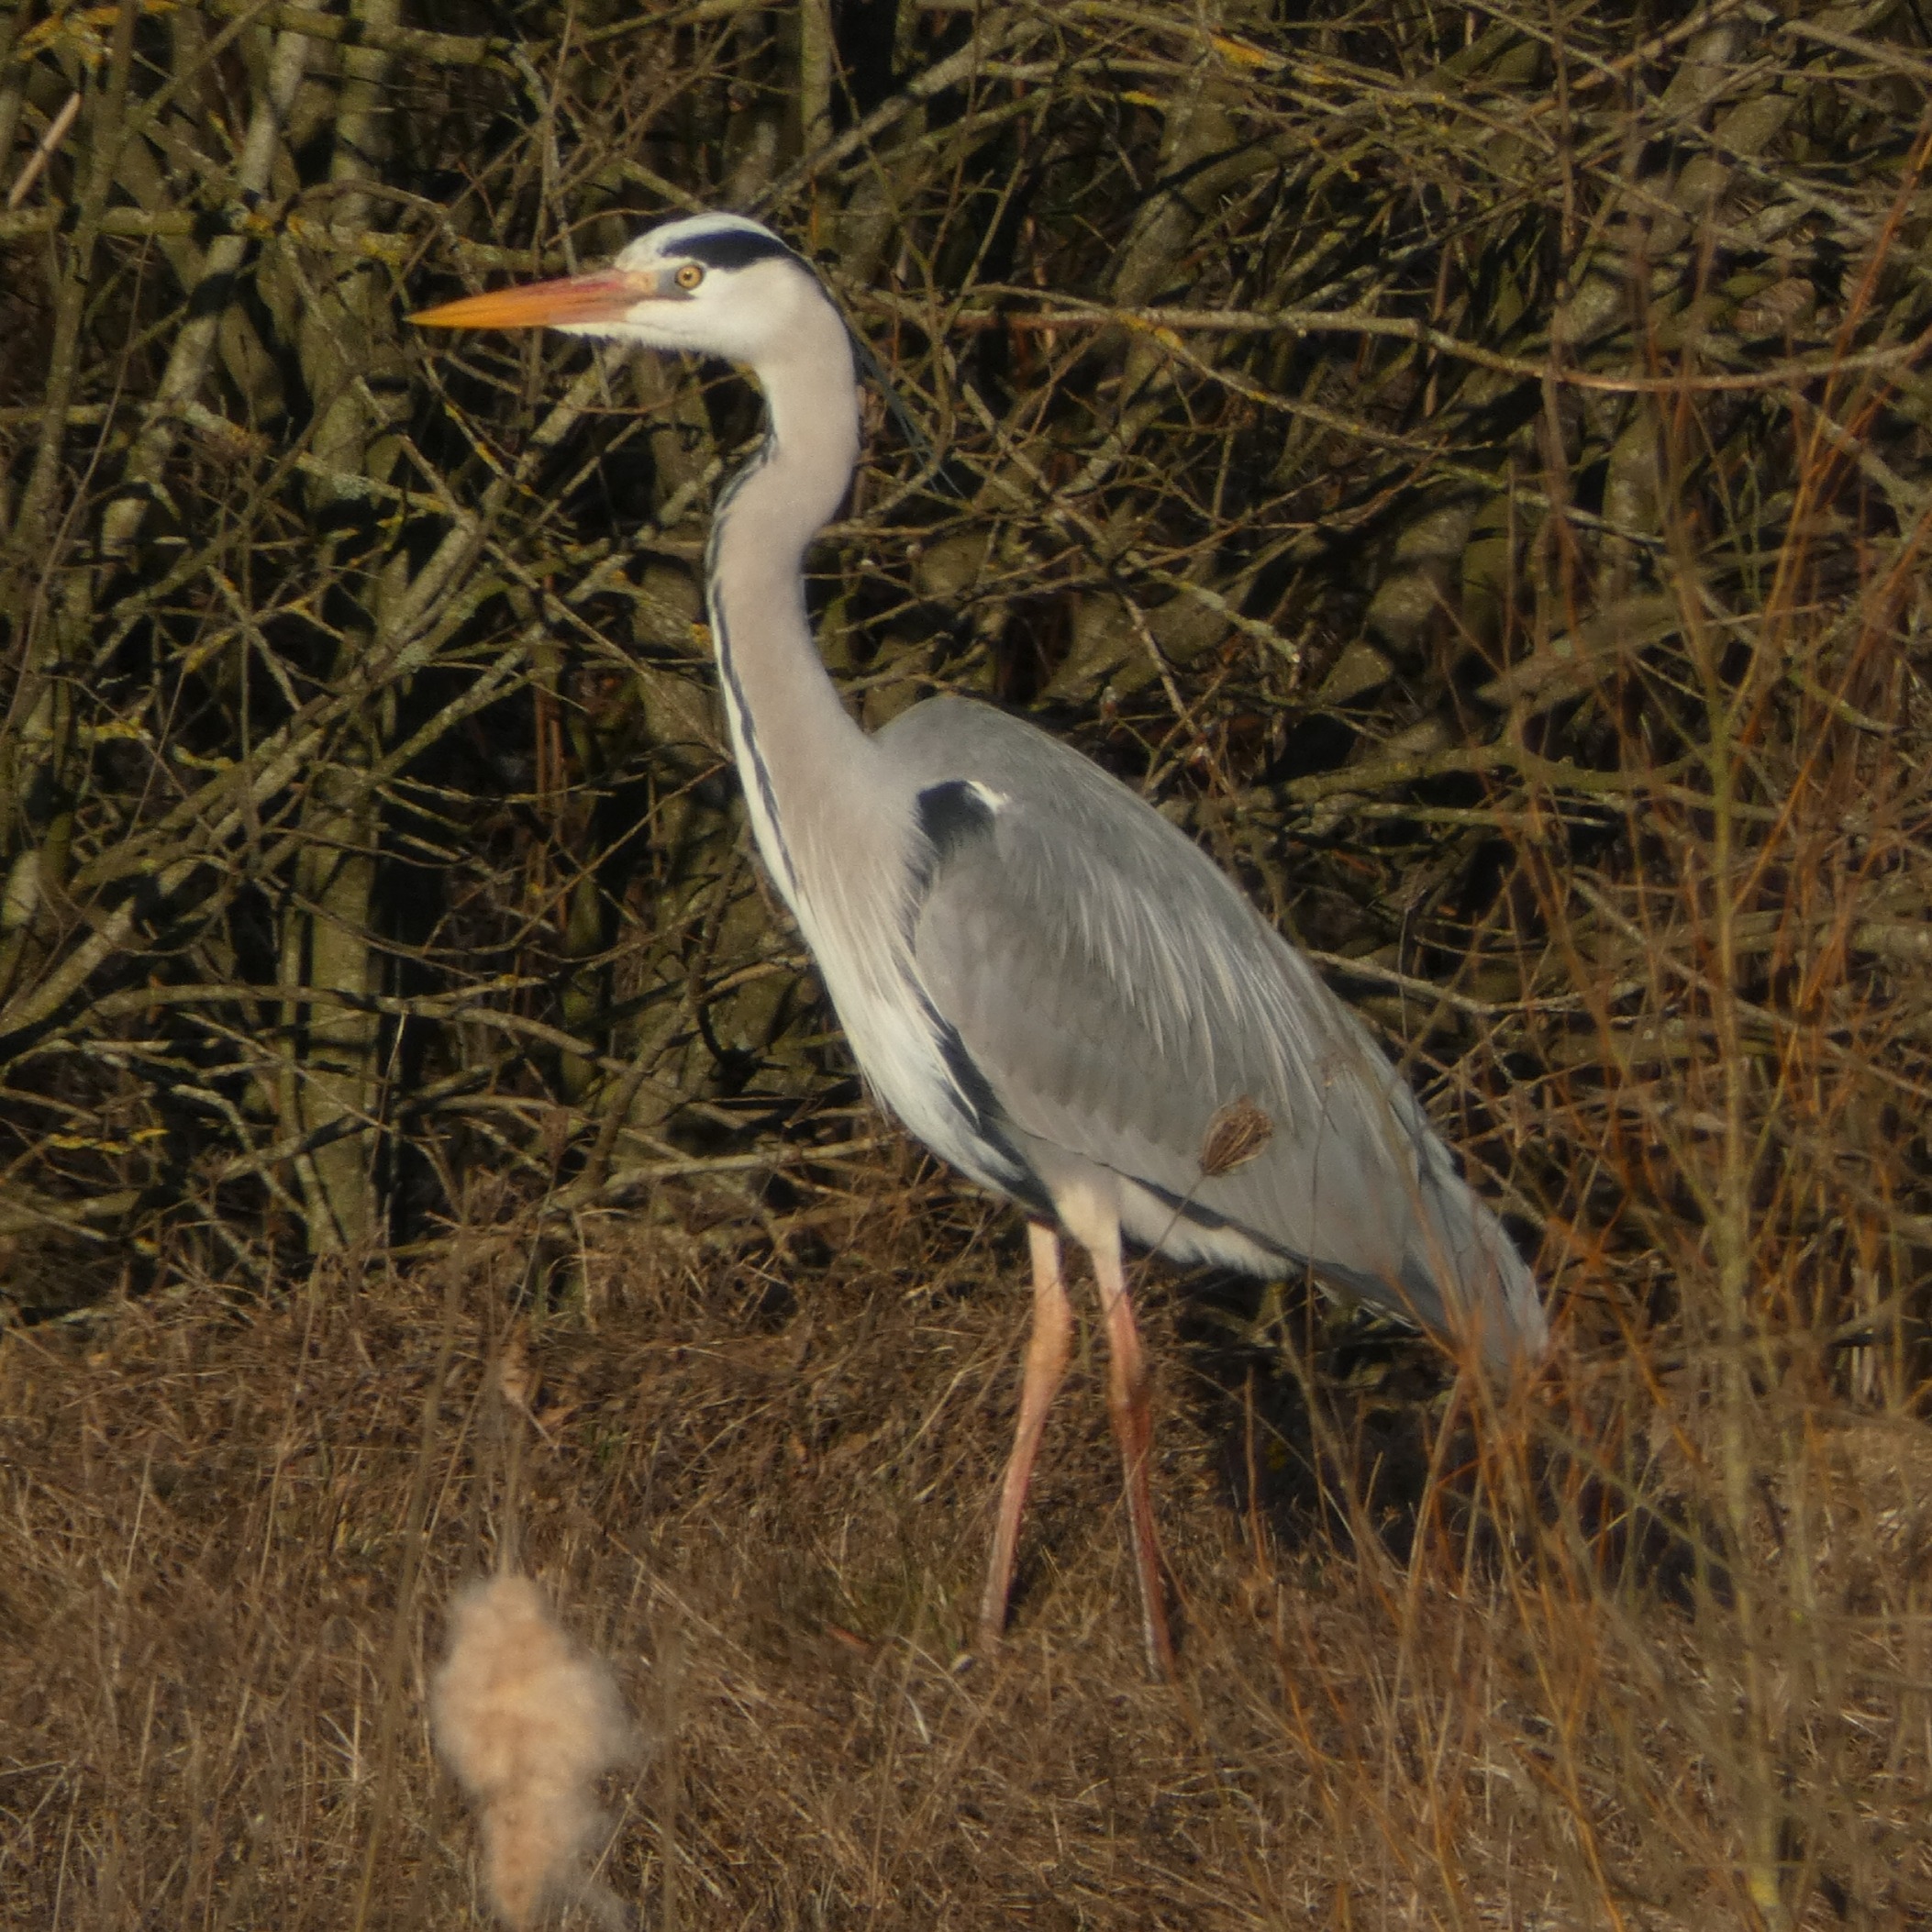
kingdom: Animalia
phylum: Chordata
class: Aves
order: Pelecaniformes
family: Ardeidae
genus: Ardea
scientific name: Ardea cinerea
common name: Fiskehejre
